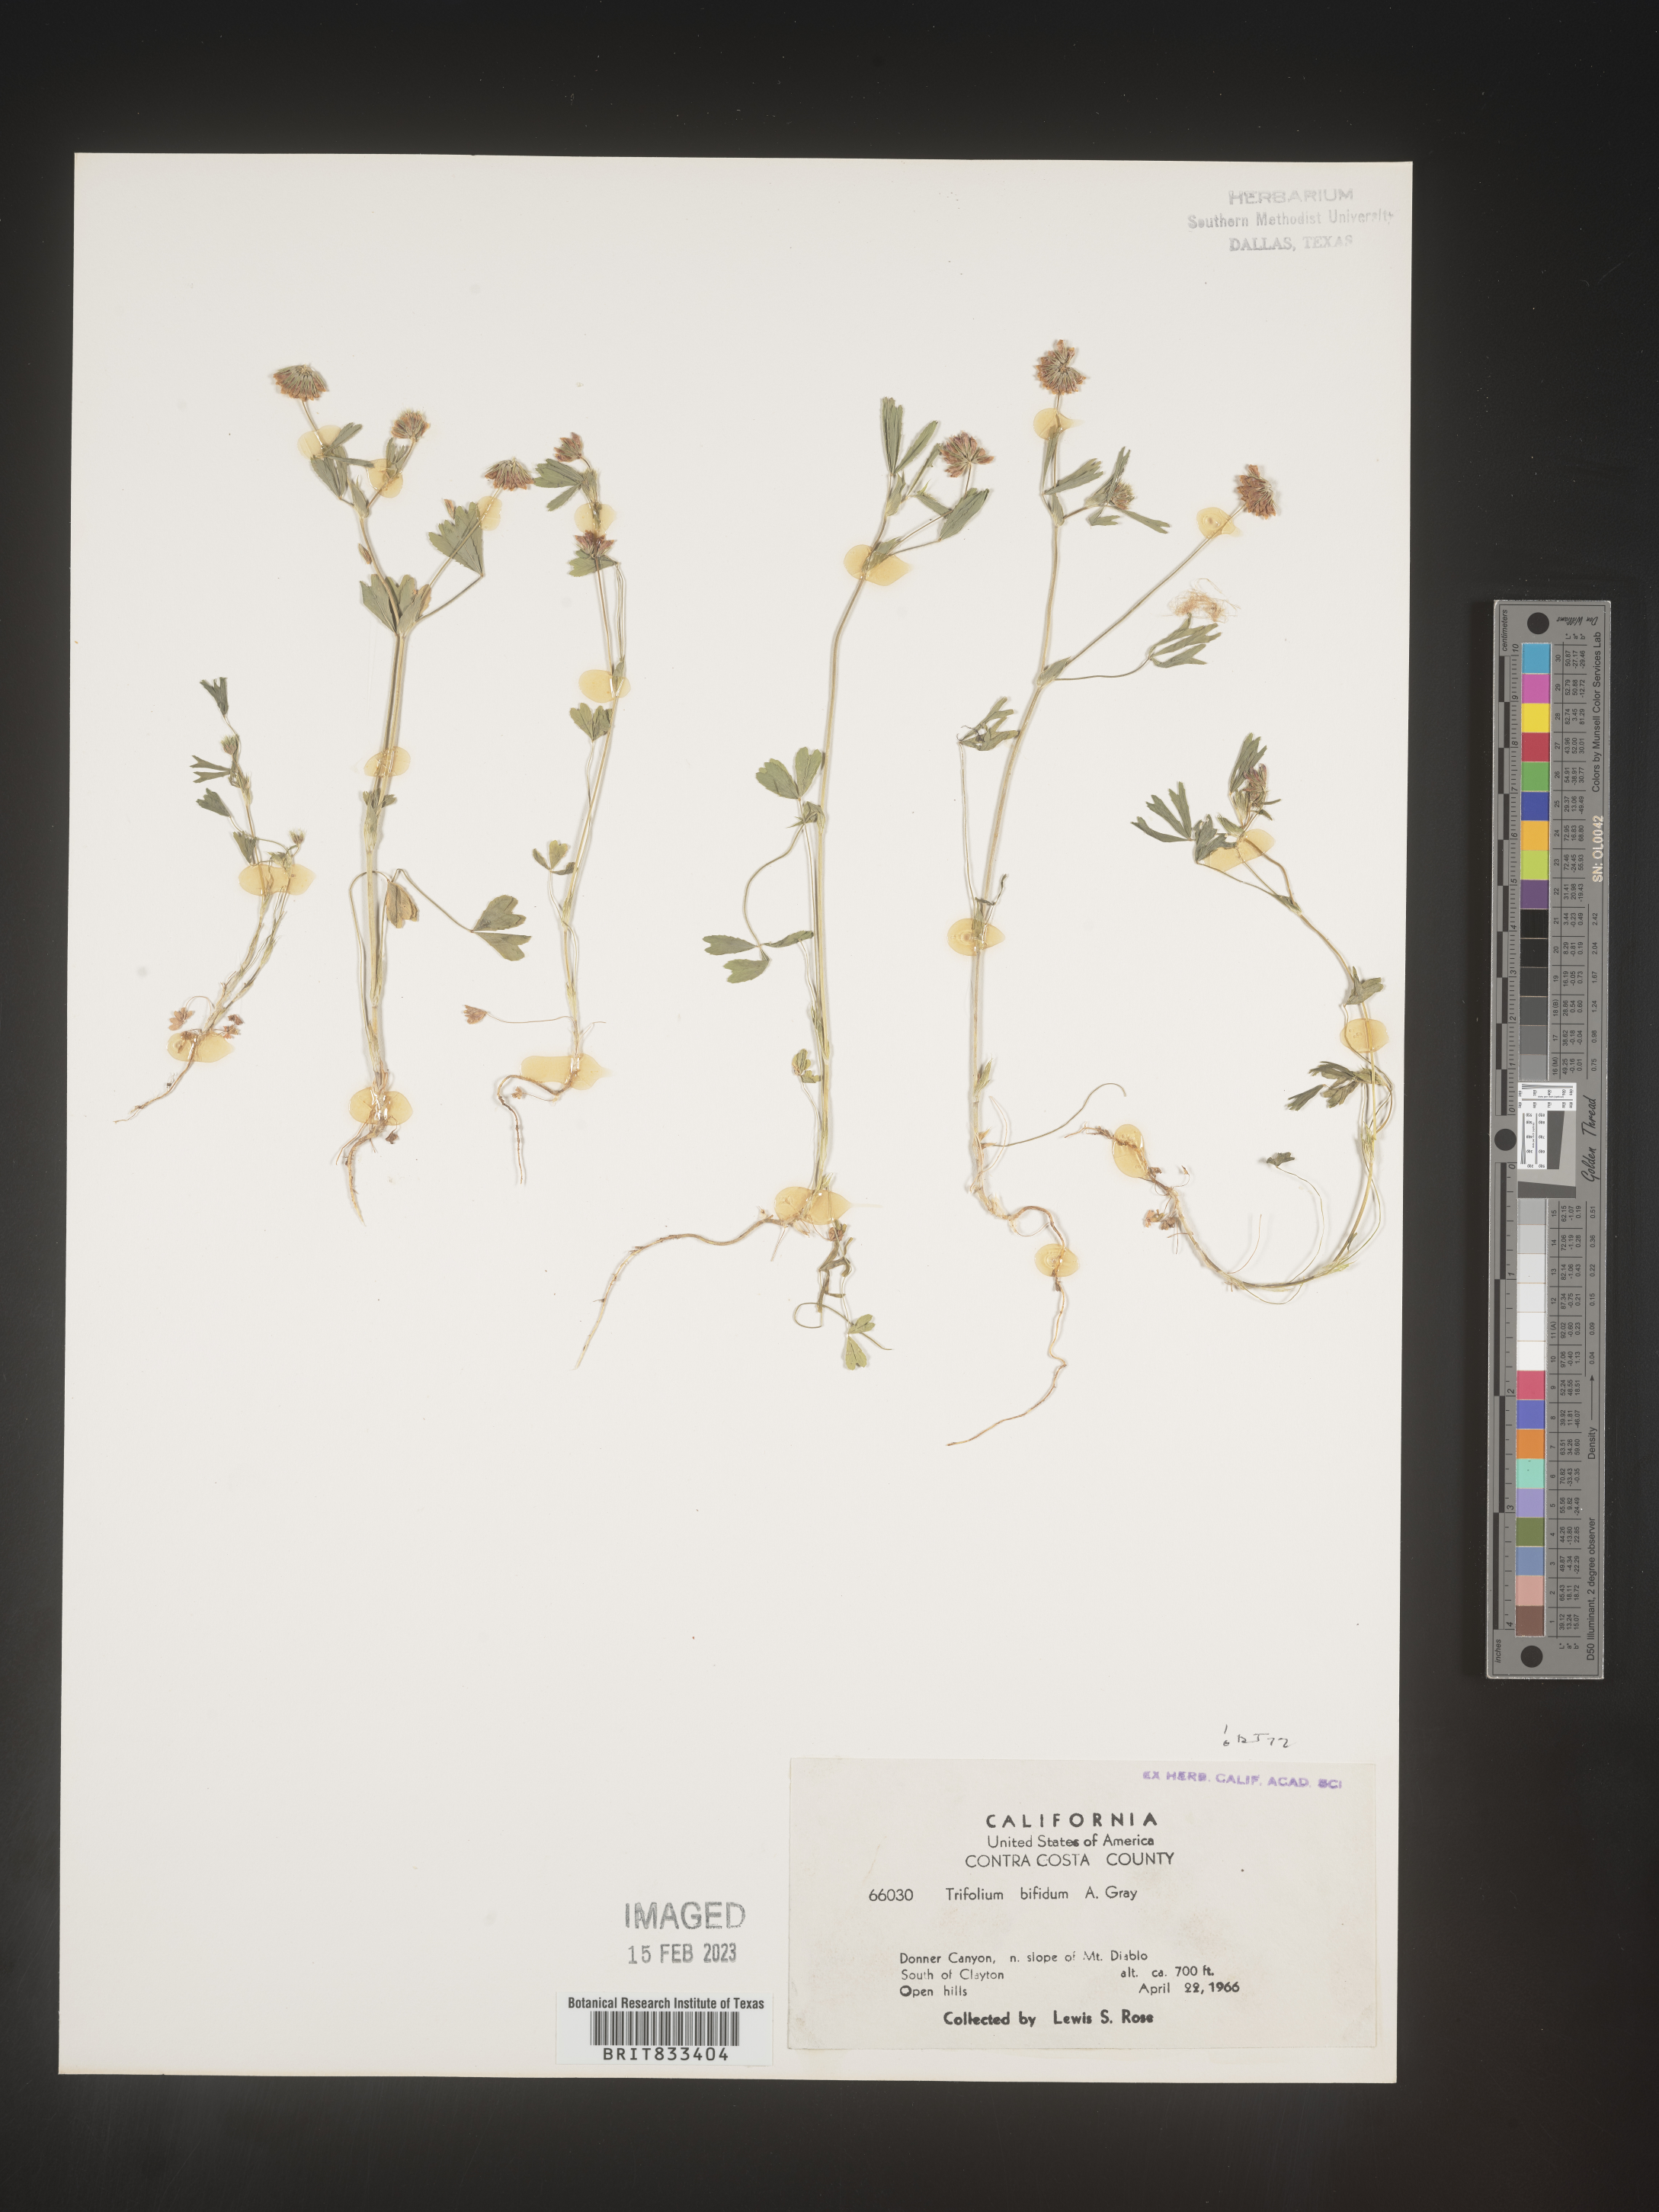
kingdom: Plantae
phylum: Tracheophyta
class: Magnoliopsida
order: Fabales
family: Fabaceae
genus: Trifolium
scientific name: Trifolium
